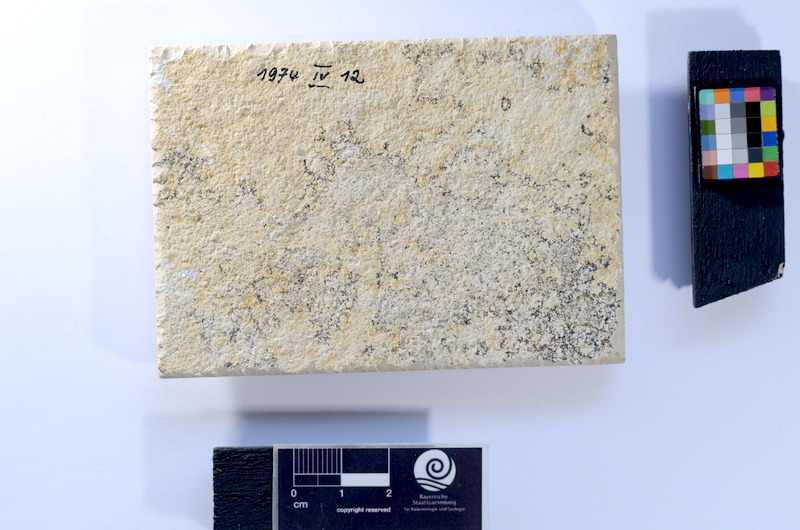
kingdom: Animalia
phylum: Chordata
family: Ascalaboidae
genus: Tharsis
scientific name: Tharsis dubius
